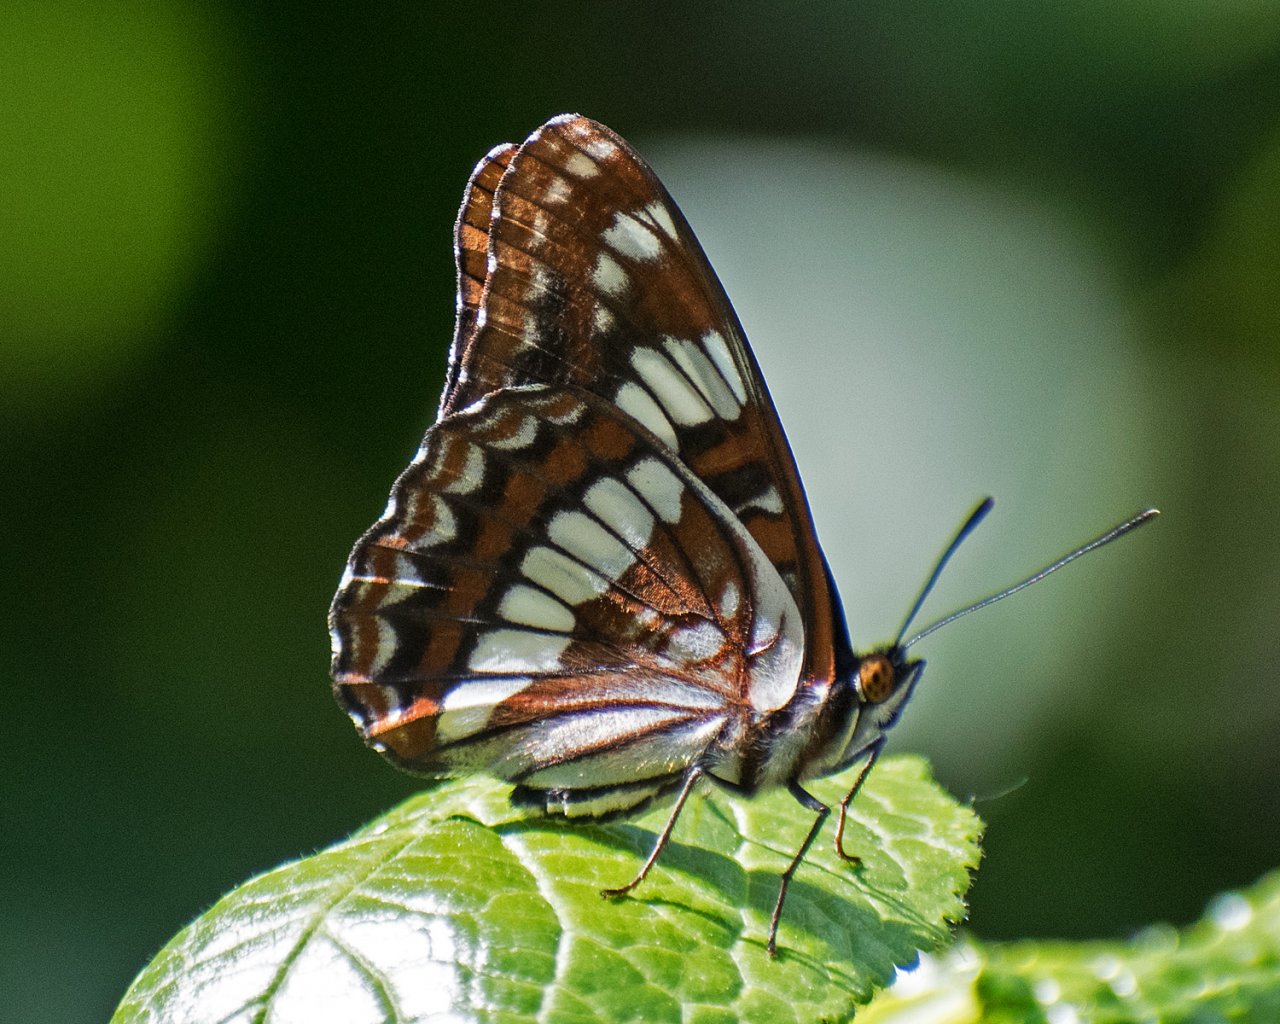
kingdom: Animalia
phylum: Arthropoda
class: Insecta
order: Lepidoptera
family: Nymphalidae
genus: Limenitis
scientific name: Limenitis lorquini
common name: Lorquin's Admiral
